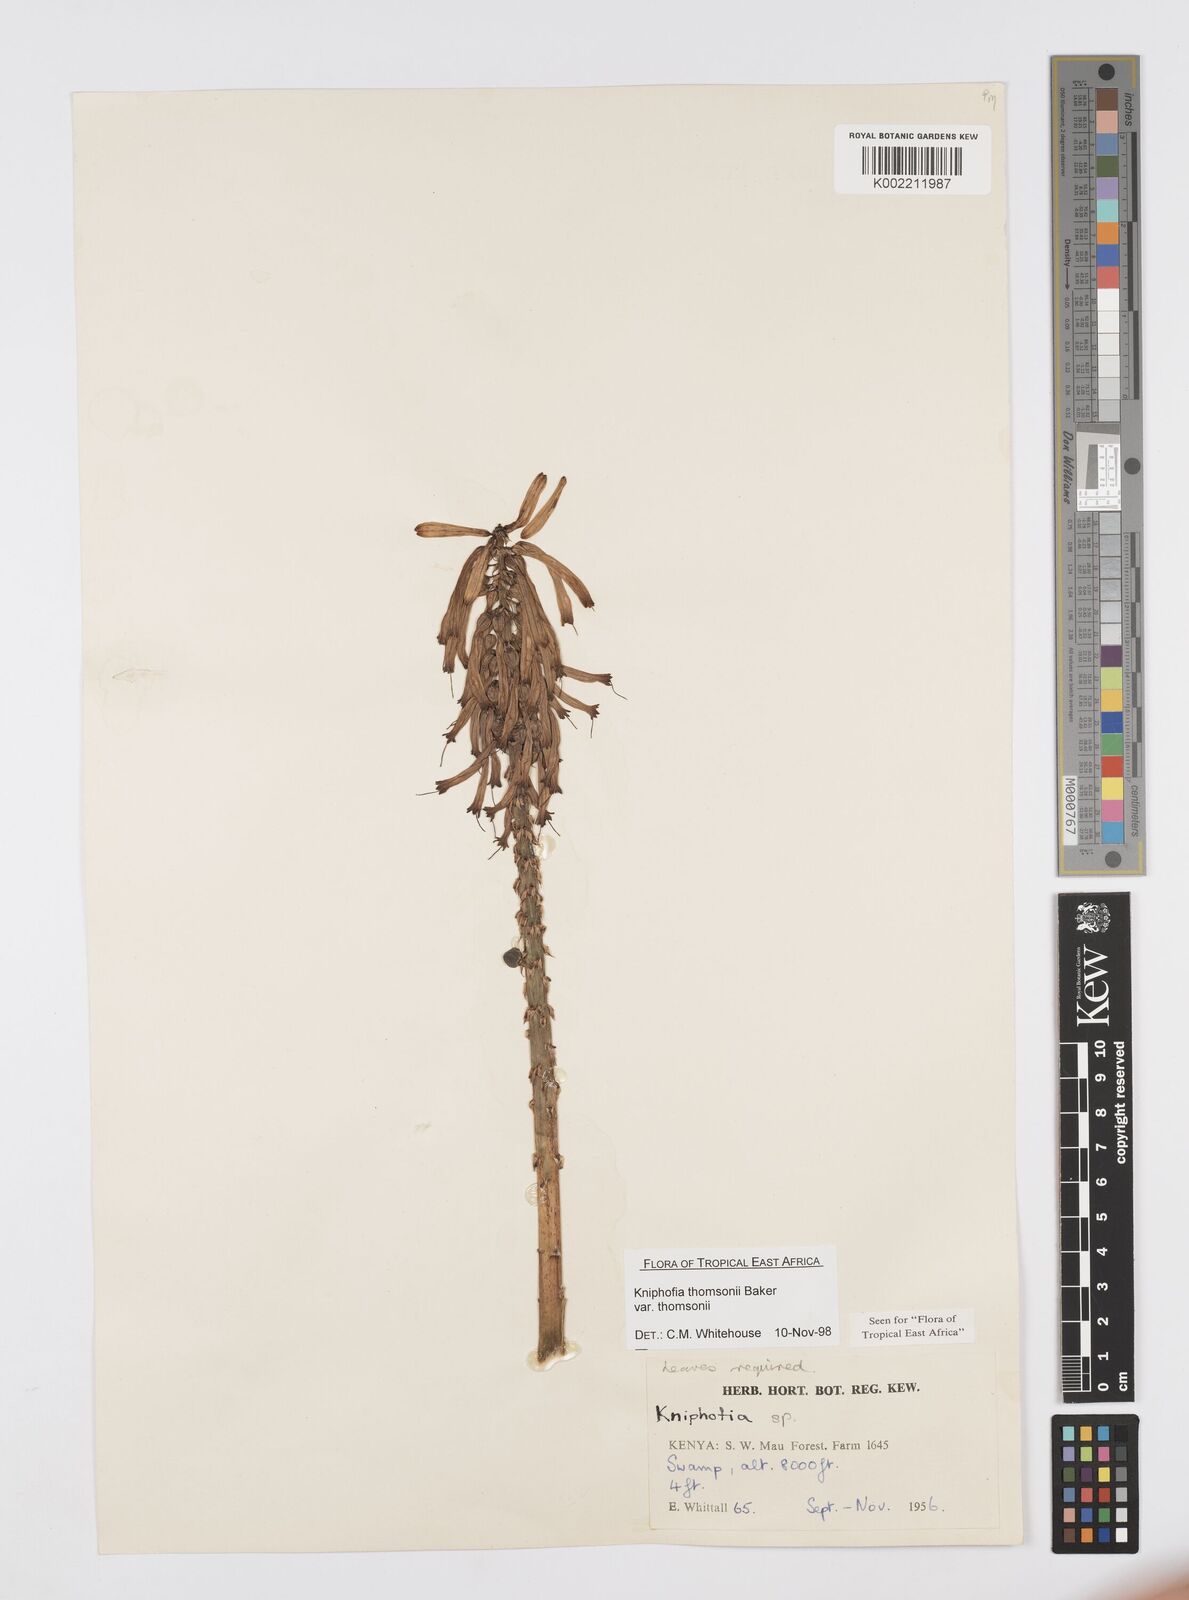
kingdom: Plantae
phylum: Tracheophyta
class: Liliopsida
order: Asparagales
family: Asphodelaceae
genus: Kniphofia
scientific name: Kniphofia thomsonii
